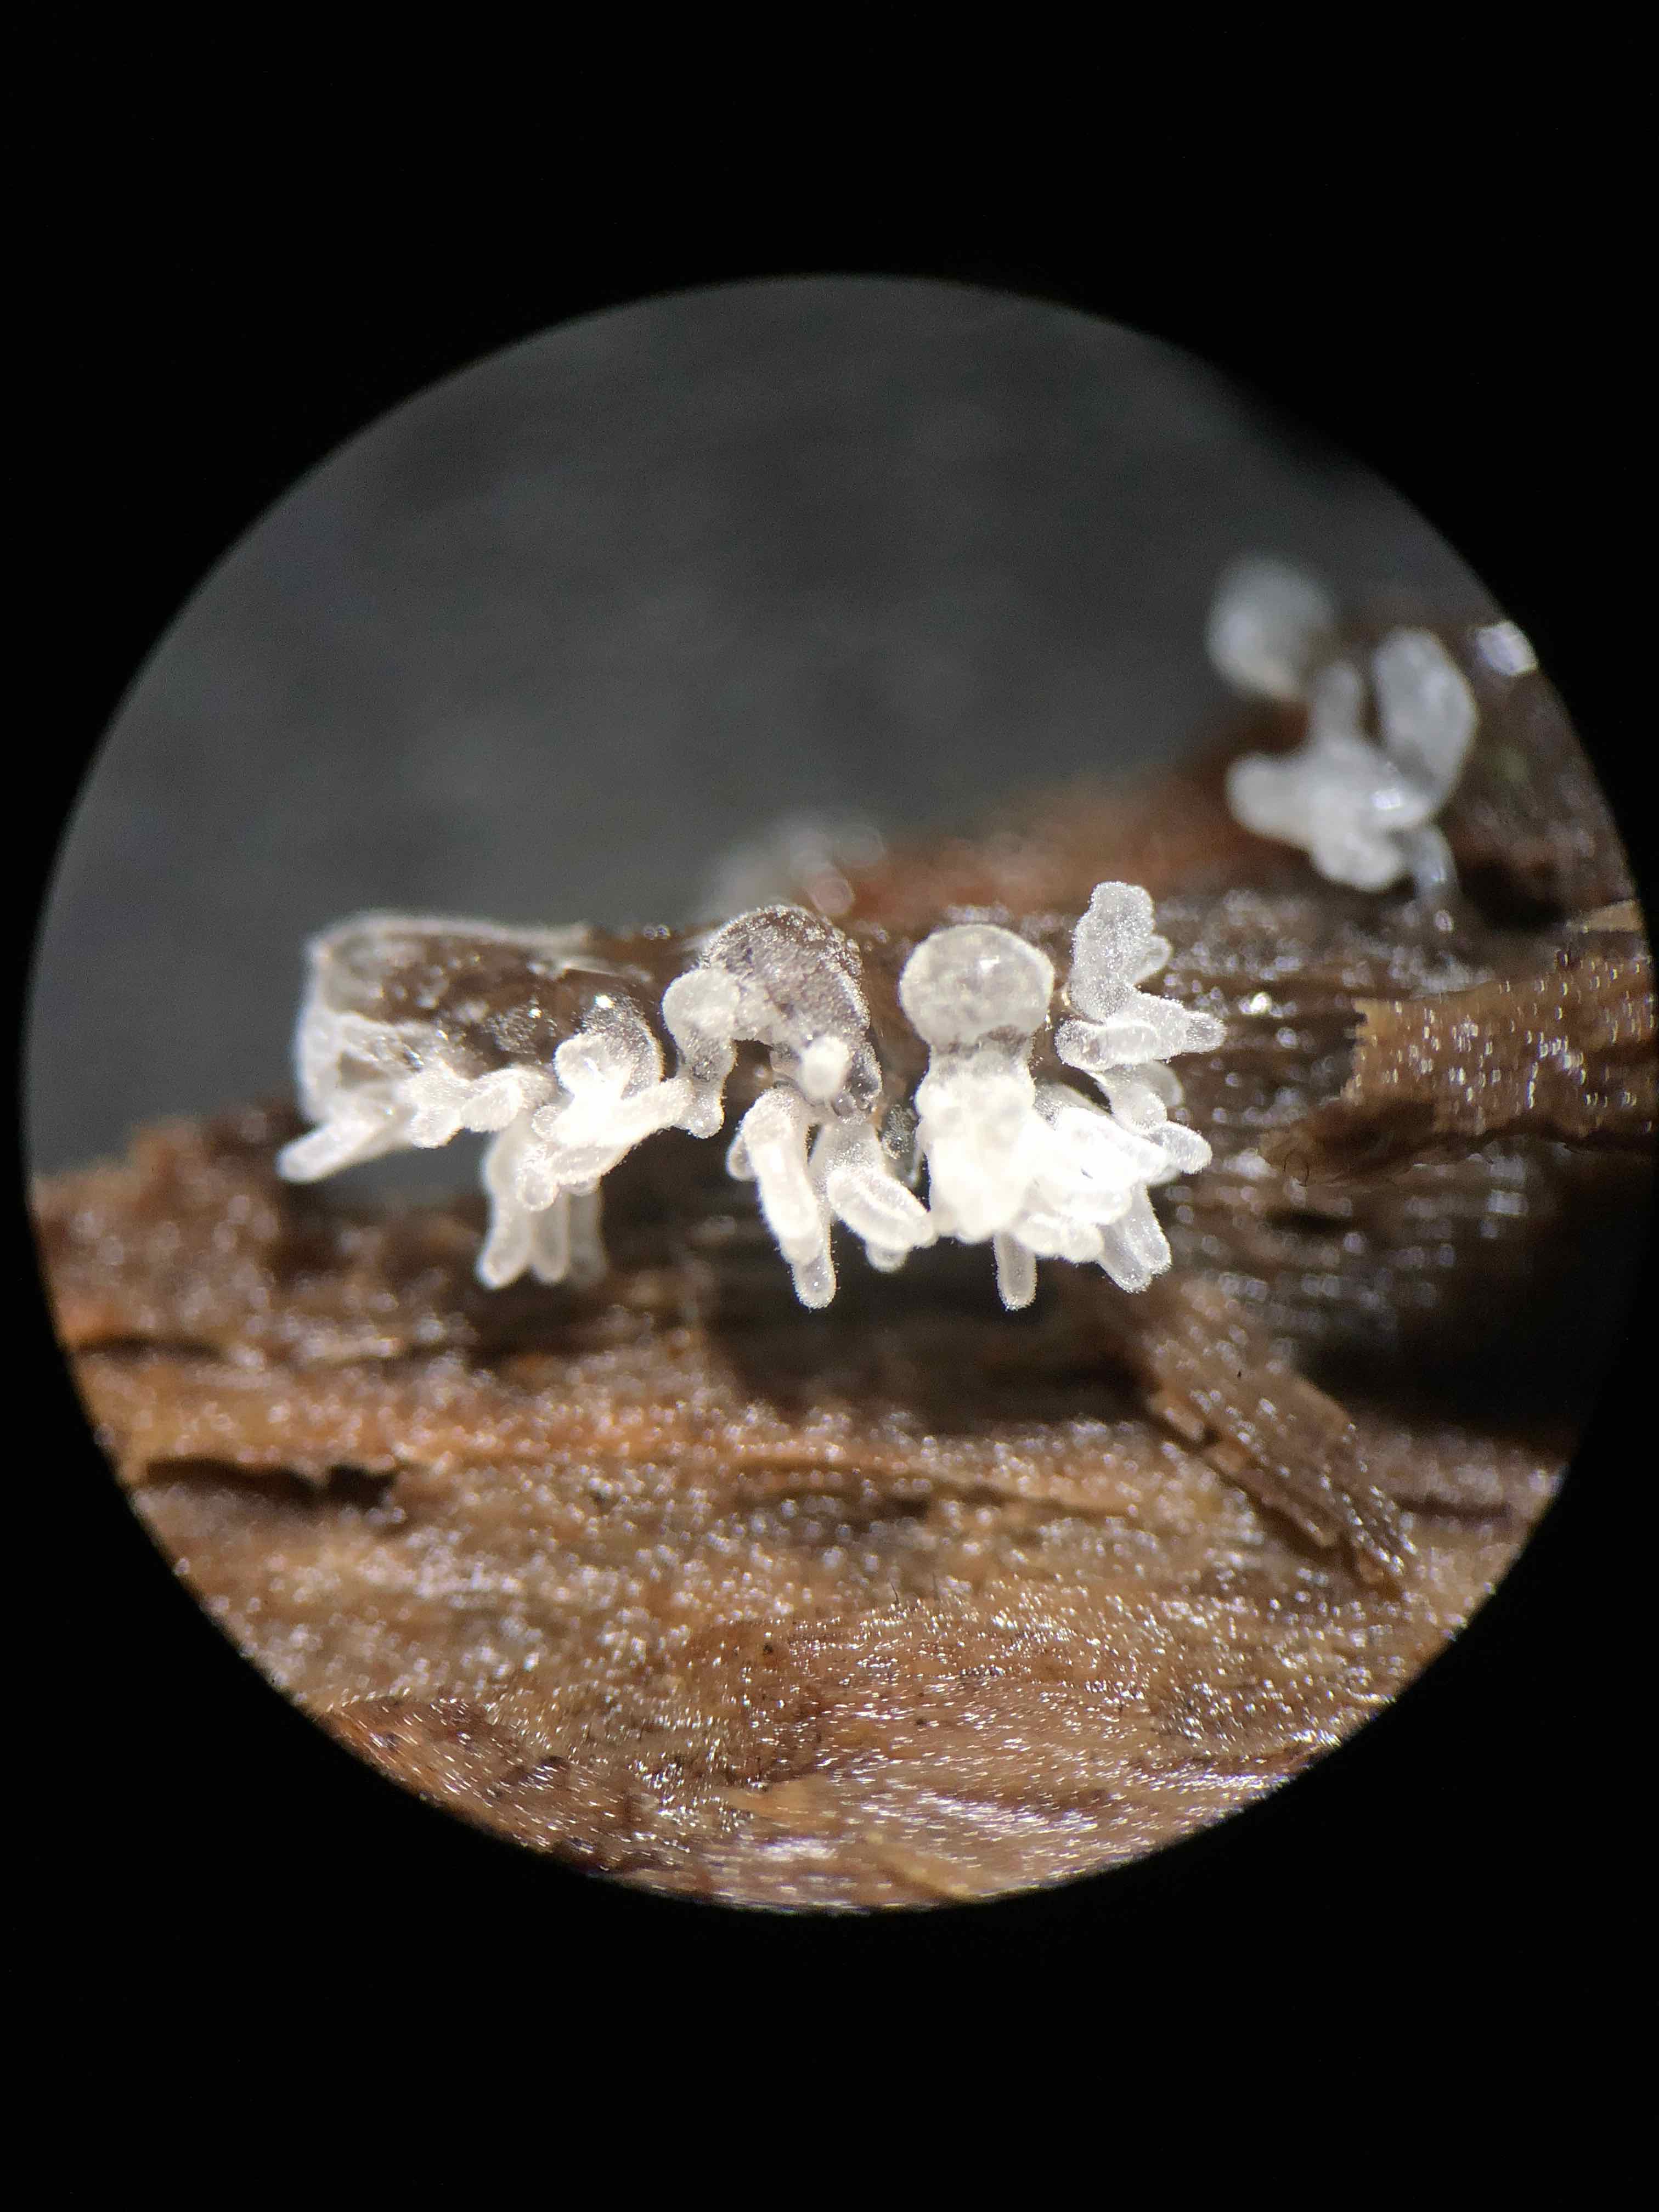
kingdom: Protozoa
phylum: Mycetozoa
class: Protosteliomycetes
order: Ceratiomyxales
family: Ceratiomyxaceae
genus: Ceratiomyxa
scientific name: Ceratiomyxa fruticulosa
